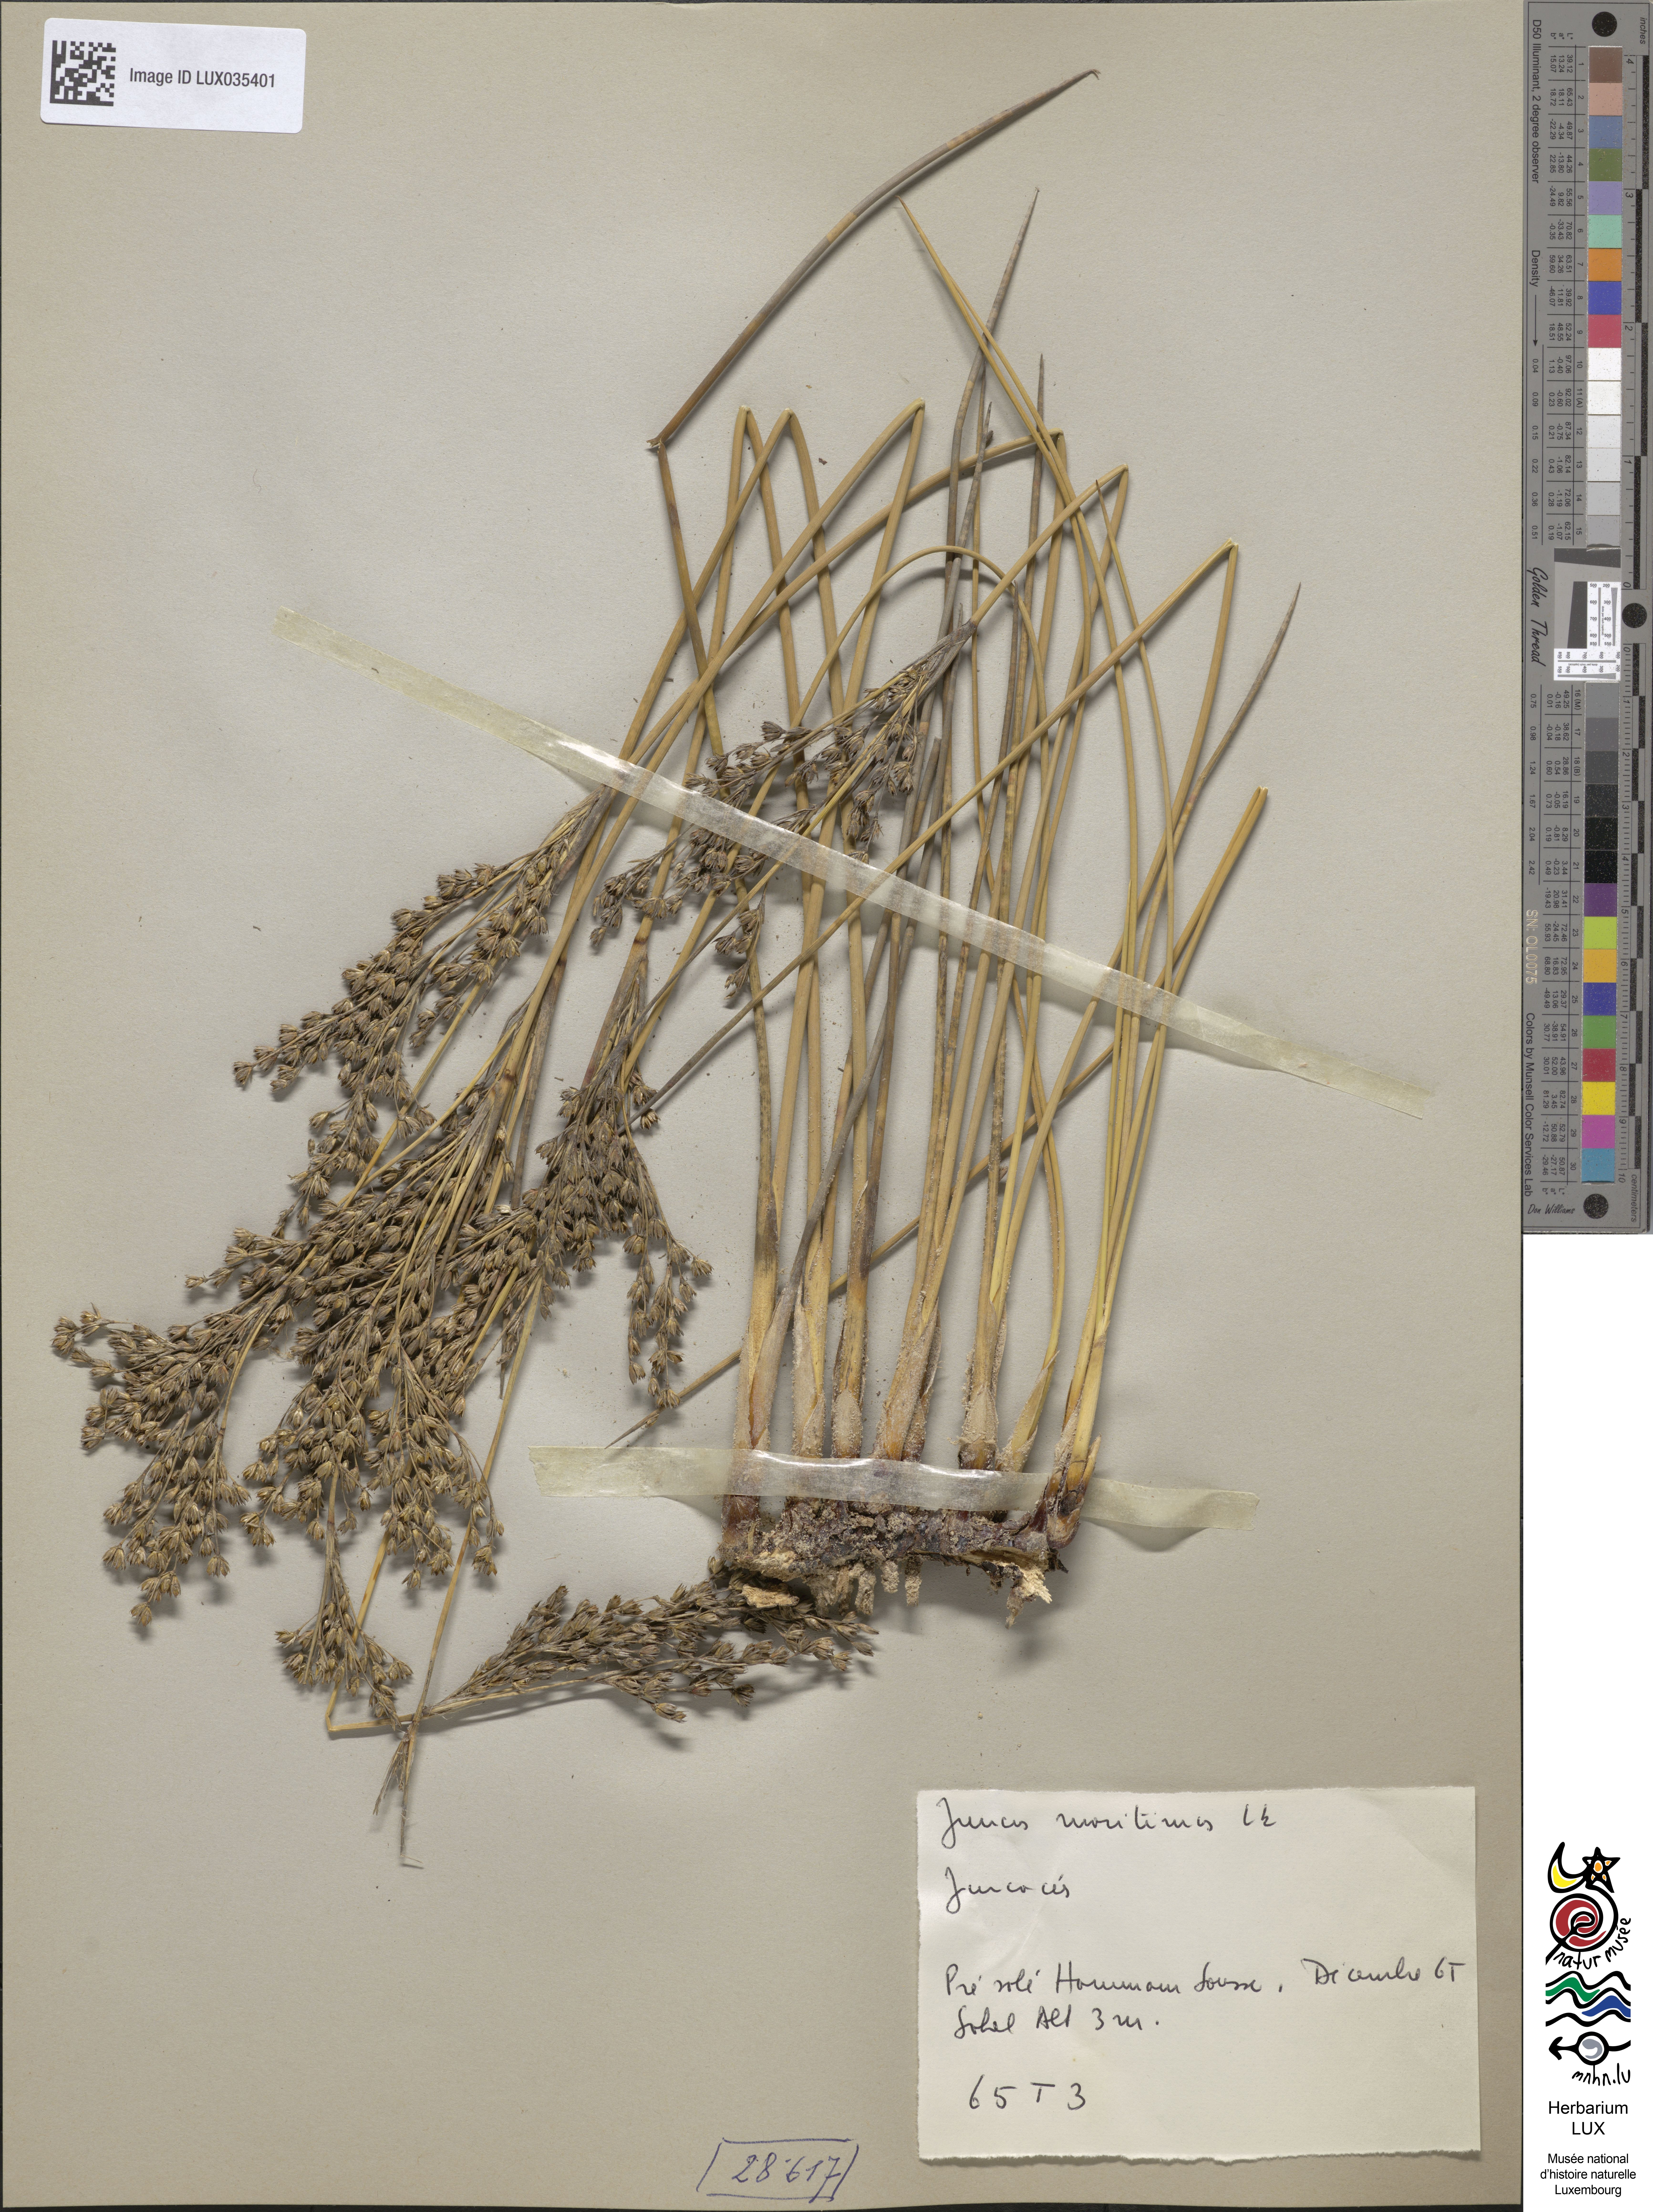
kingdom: Plantae
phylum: Tracheophyta
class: Liliopsida
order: Poales
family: Juncaceae
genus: Juncus
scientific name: Juncus maritimus
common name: Sea rush
